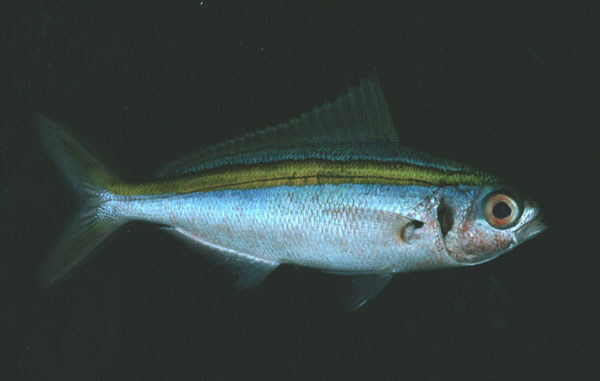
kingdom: Animalia
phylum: Chordata
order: Perciformes
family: Caesionidae
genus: Caesio
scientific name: Caesio caerulaurea
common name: Blue and gold fusilier
